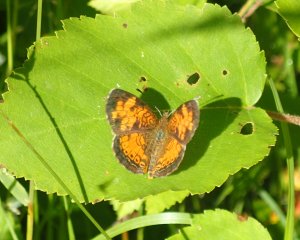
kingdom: Animalia
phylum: Arthropoda
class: Insecta
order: Lepidoptera
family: Nymphalidae
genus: Phyciodes
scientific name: Phyciodes tharos
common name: Northern Crescent
